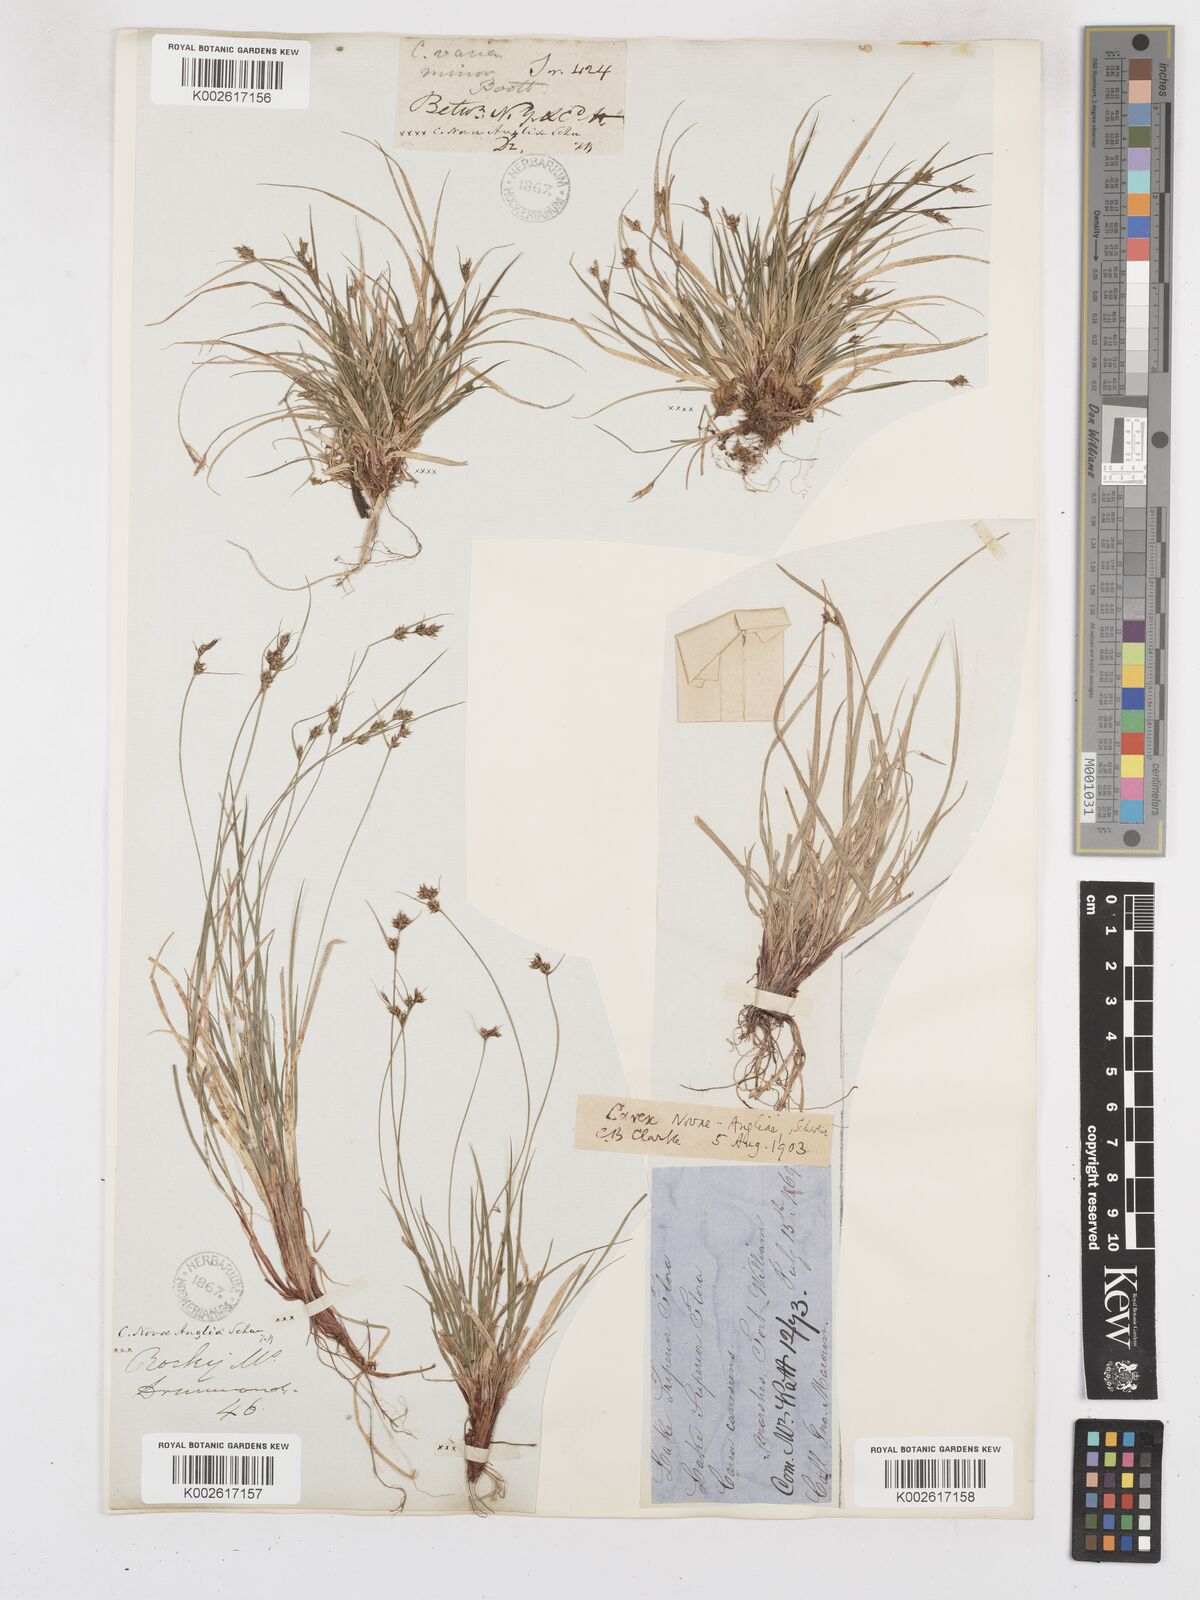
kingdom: Plantae
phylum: Tracheophyta
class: Liliopsida
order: Poales
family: Cyperaceae
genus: Carex
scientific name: Carex novae-angliae
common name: New england sedge
